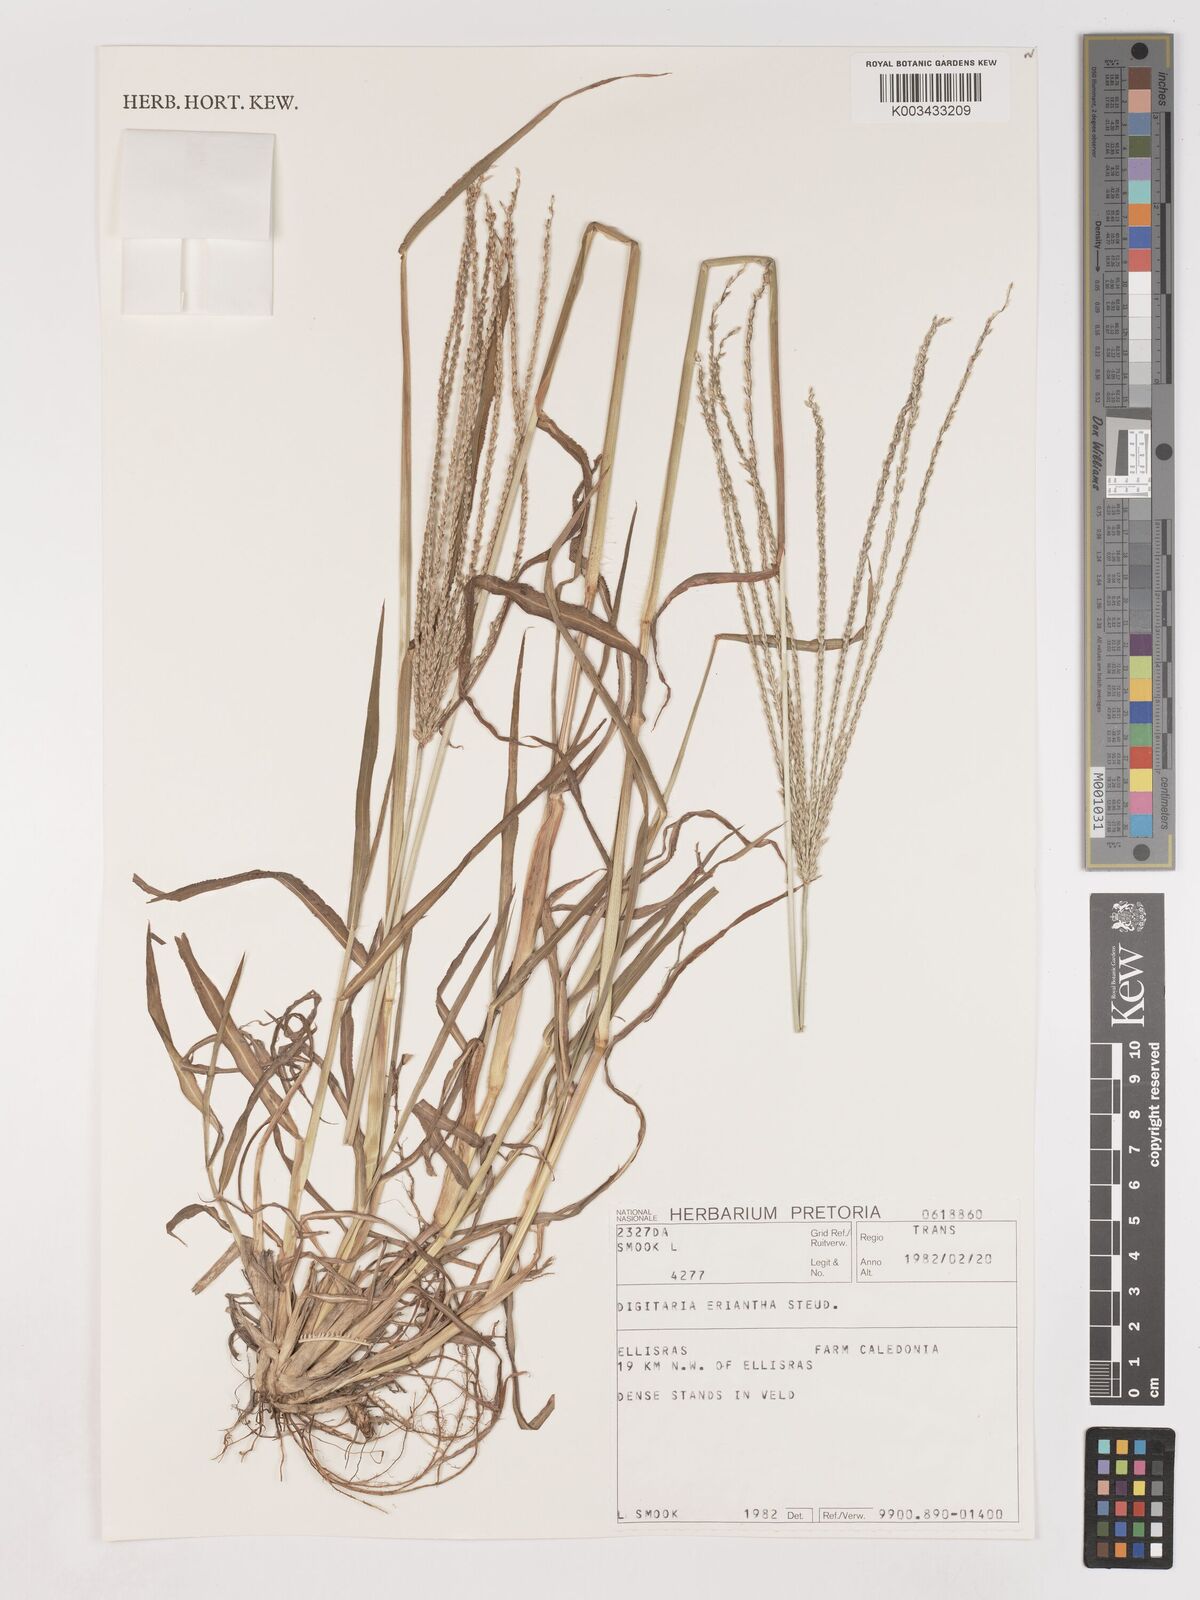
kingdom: Plantae
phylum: Tracheophyta
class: Liliopsida
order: Poales
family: Poaceae
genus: Digitaria
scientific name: Digitaria eriantha
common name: Digitgrass
